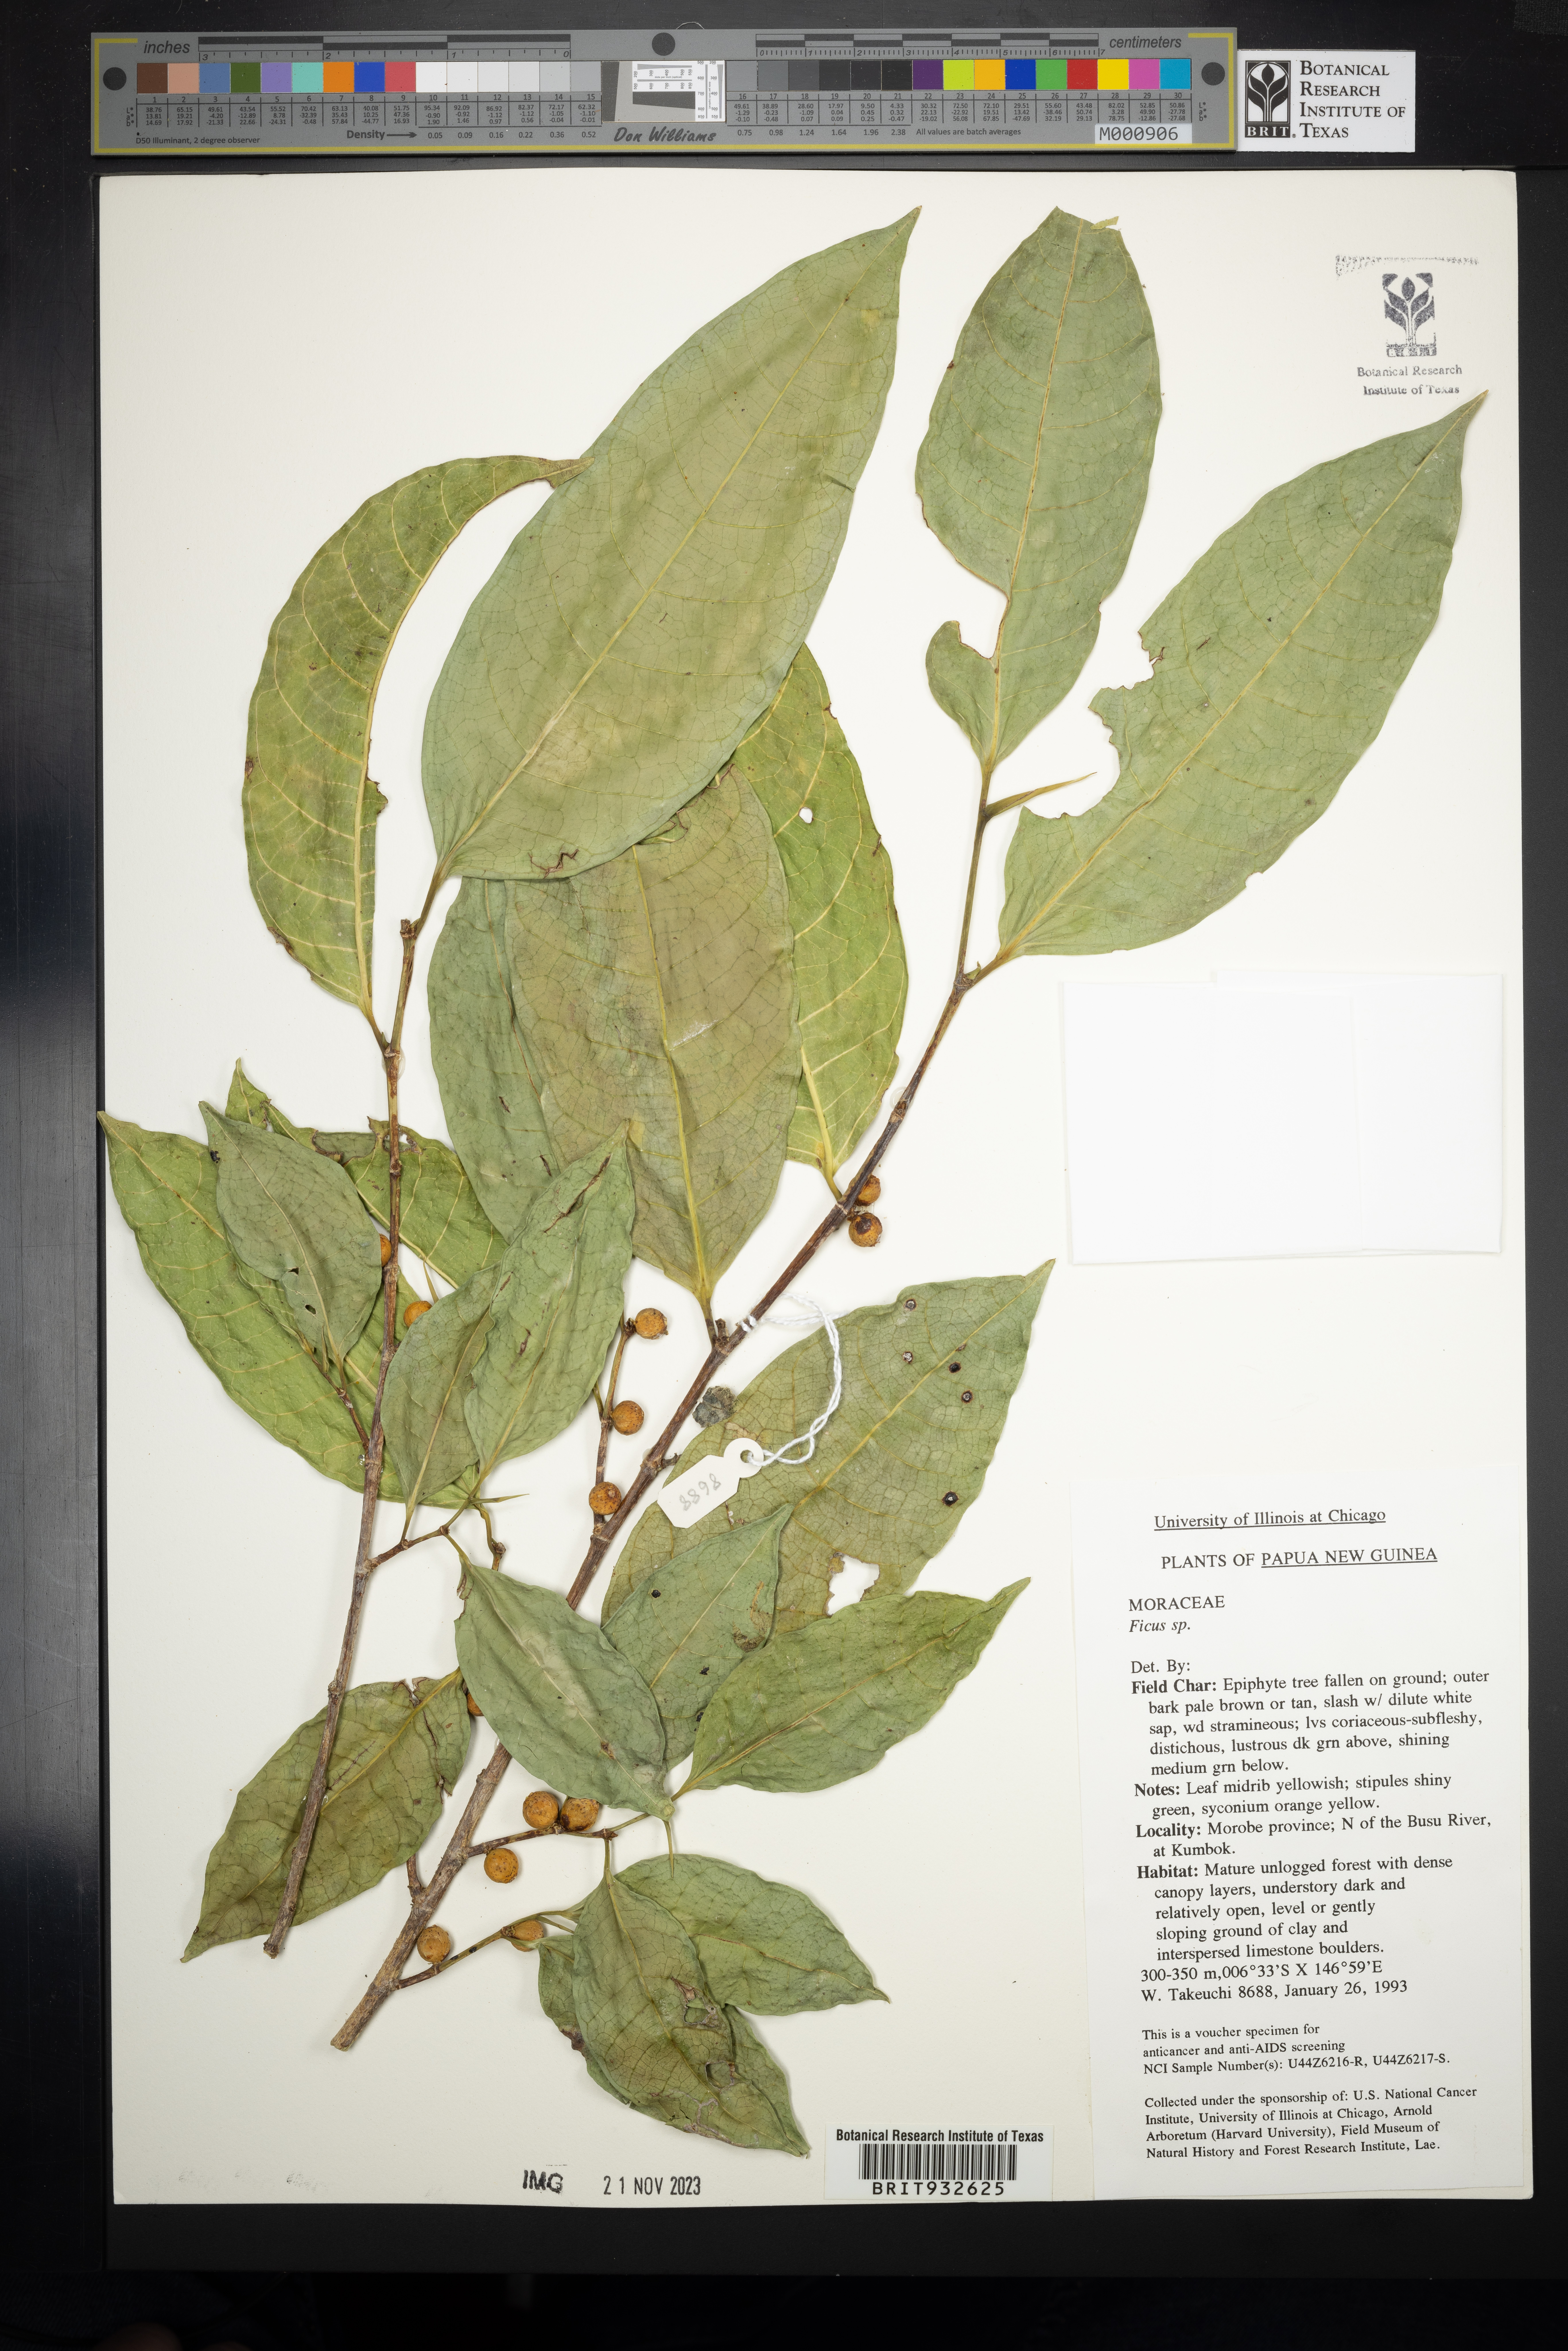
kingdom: Plantae
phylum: Tracheophyta
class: Magnoliopsida
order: Rosales
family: Moraceae
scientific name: Moraceae
